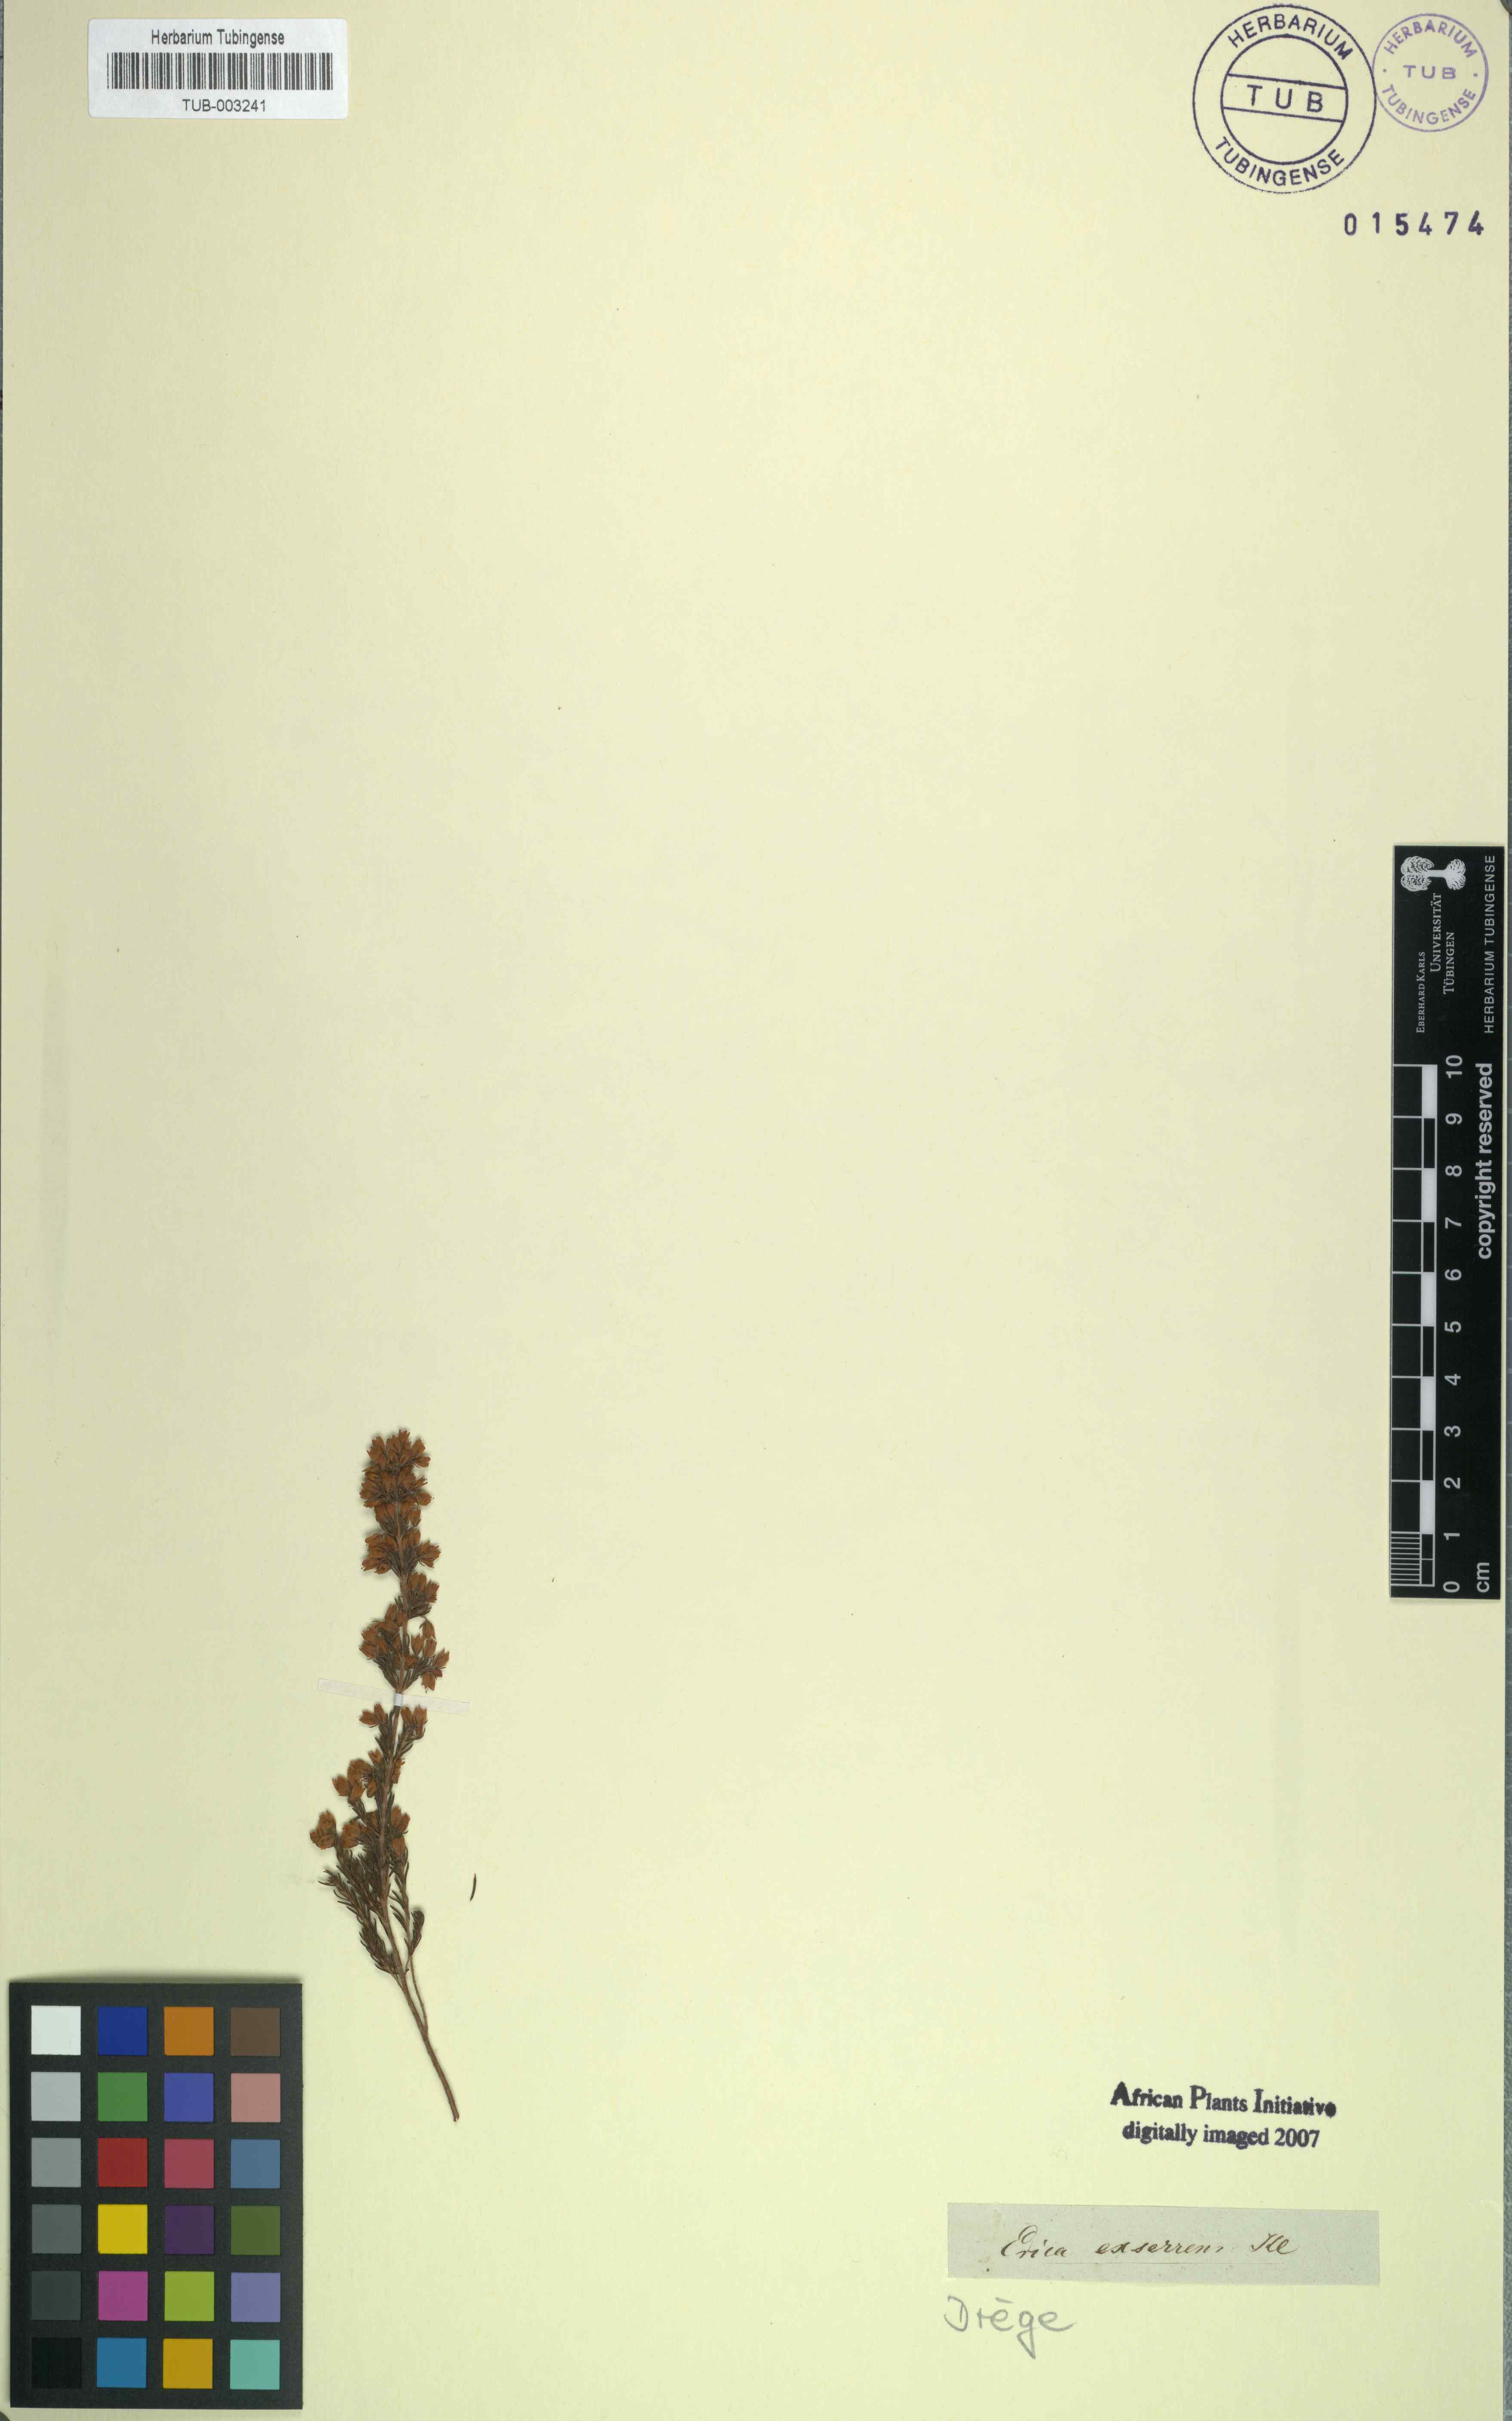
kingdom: Plantae
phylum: Tracheophyta
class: Magnoliopsida
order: Ericales
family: Ericaceae
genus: Erica
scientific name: Erica subdivaricata
